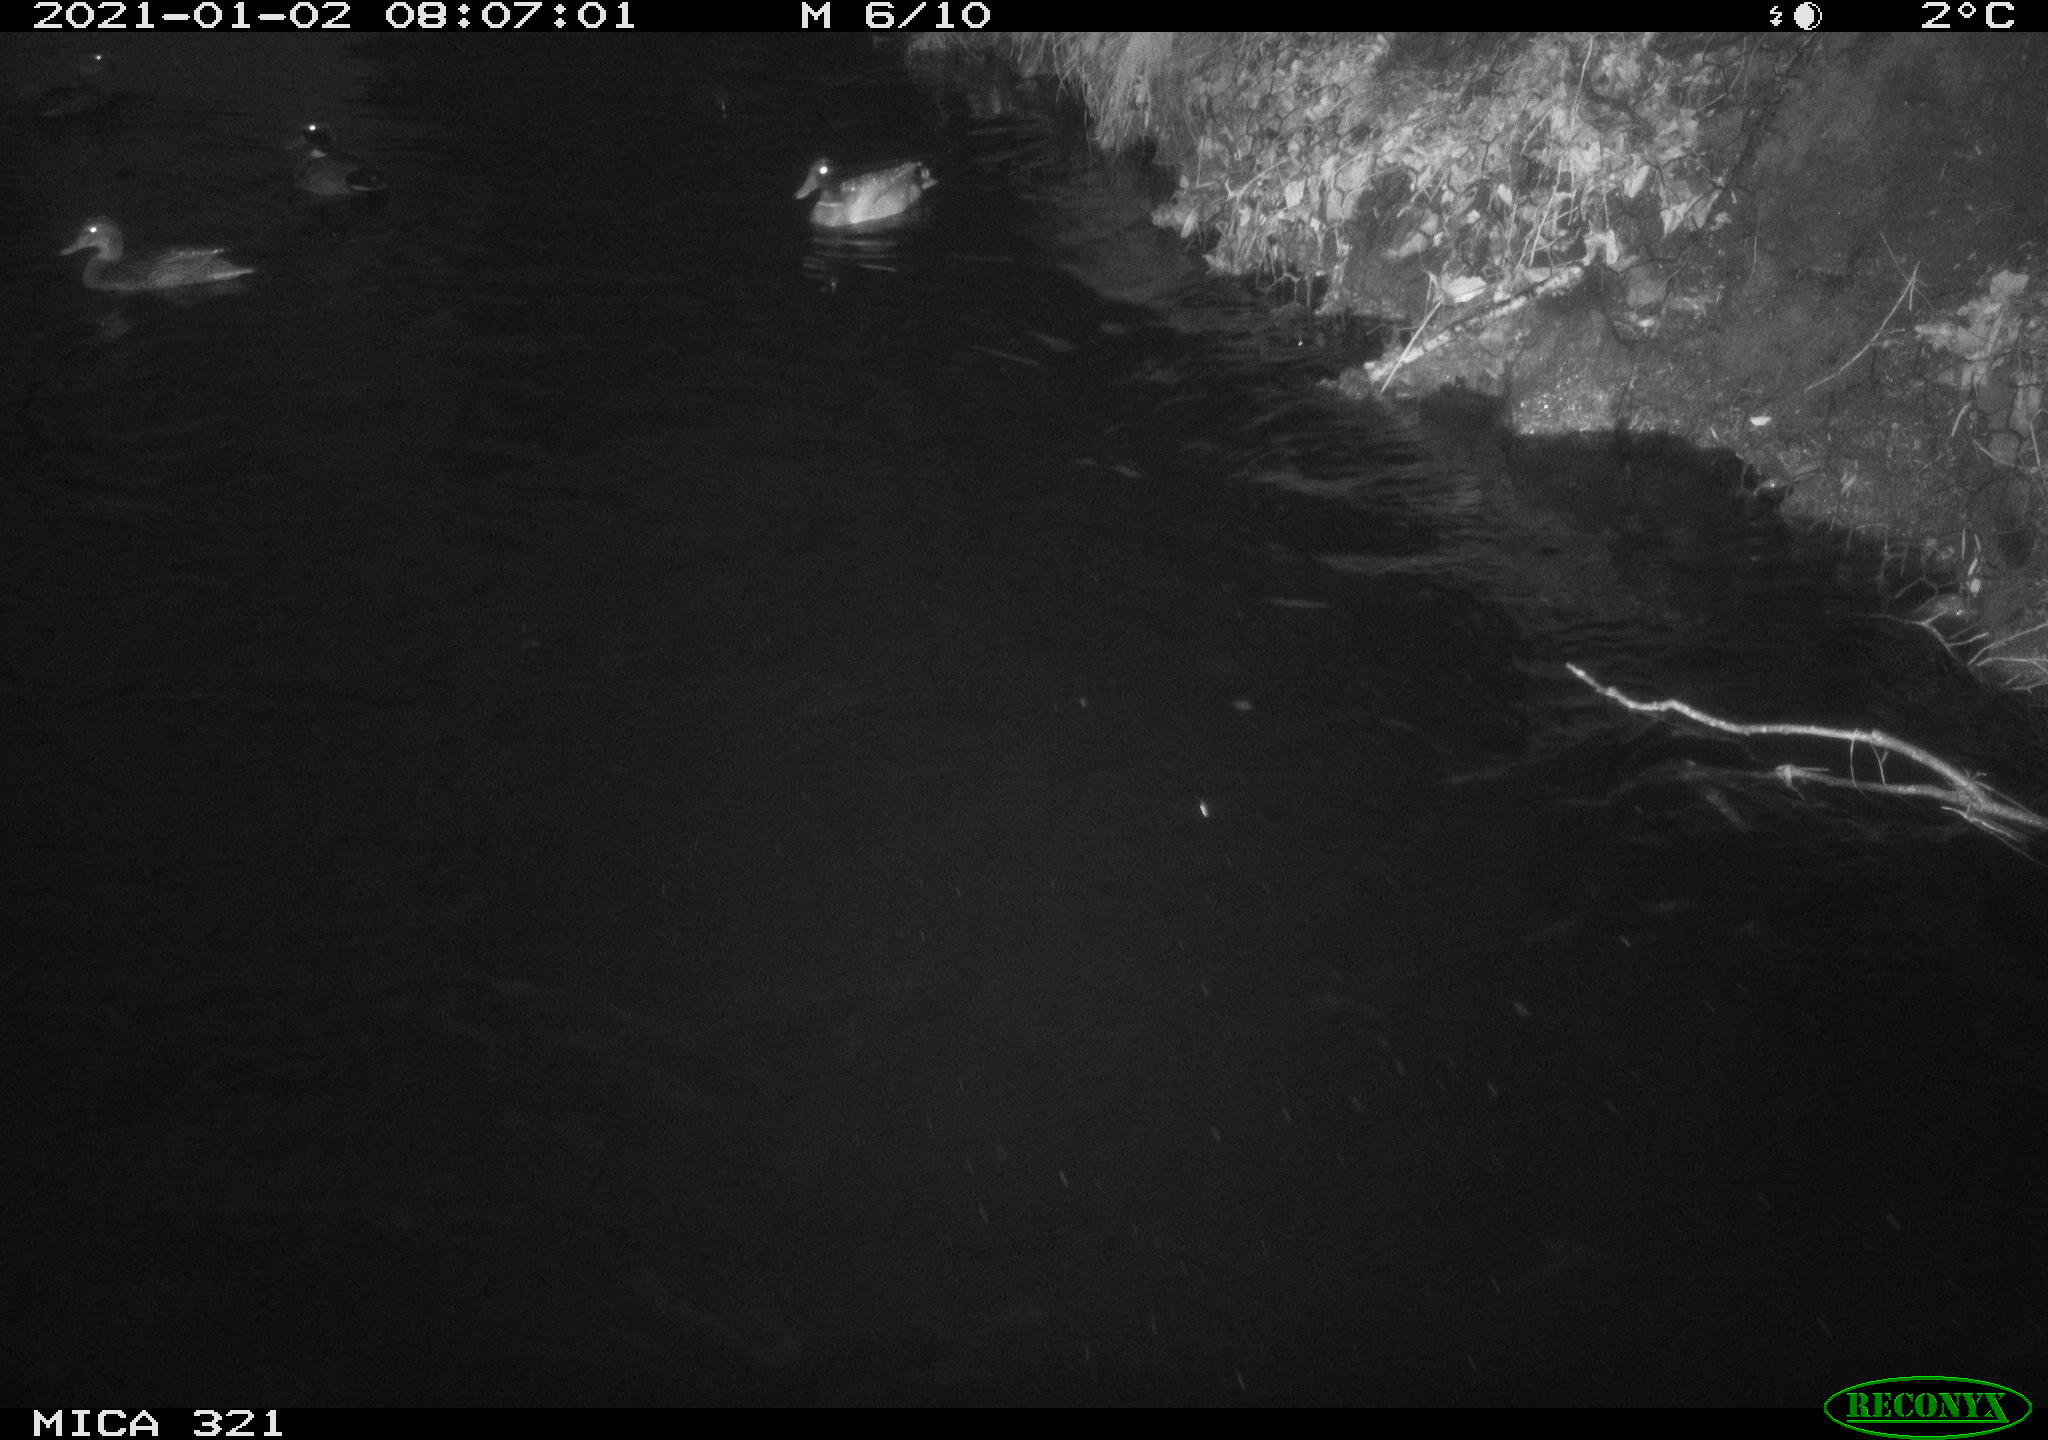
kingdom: Animalia
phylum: Chordata
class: Aves
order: Anseriformes
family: Anatidae
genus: Anas
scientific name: Anas platyrhynchos
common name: Mallard
